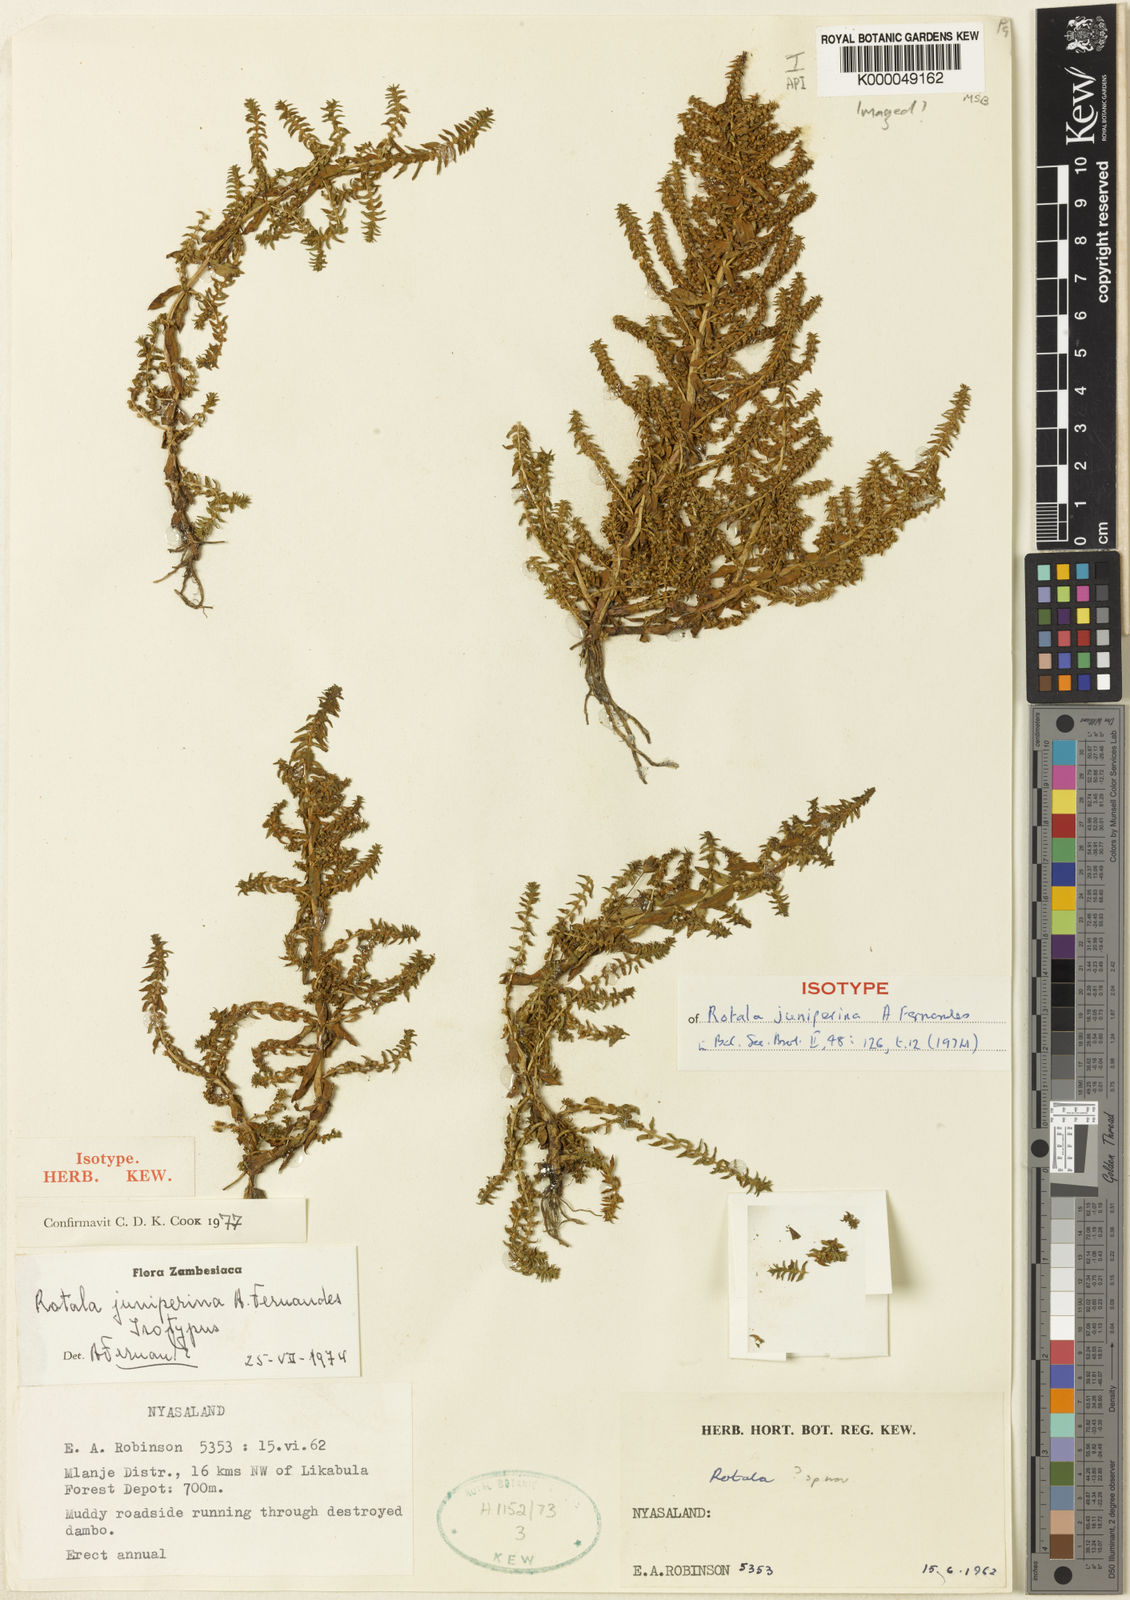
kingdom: Plantae
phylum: Tracheophyta
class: Magnoliopsida
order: Myrtales
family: Lythraceae
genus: Rotala
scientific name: Rotala juniperina
